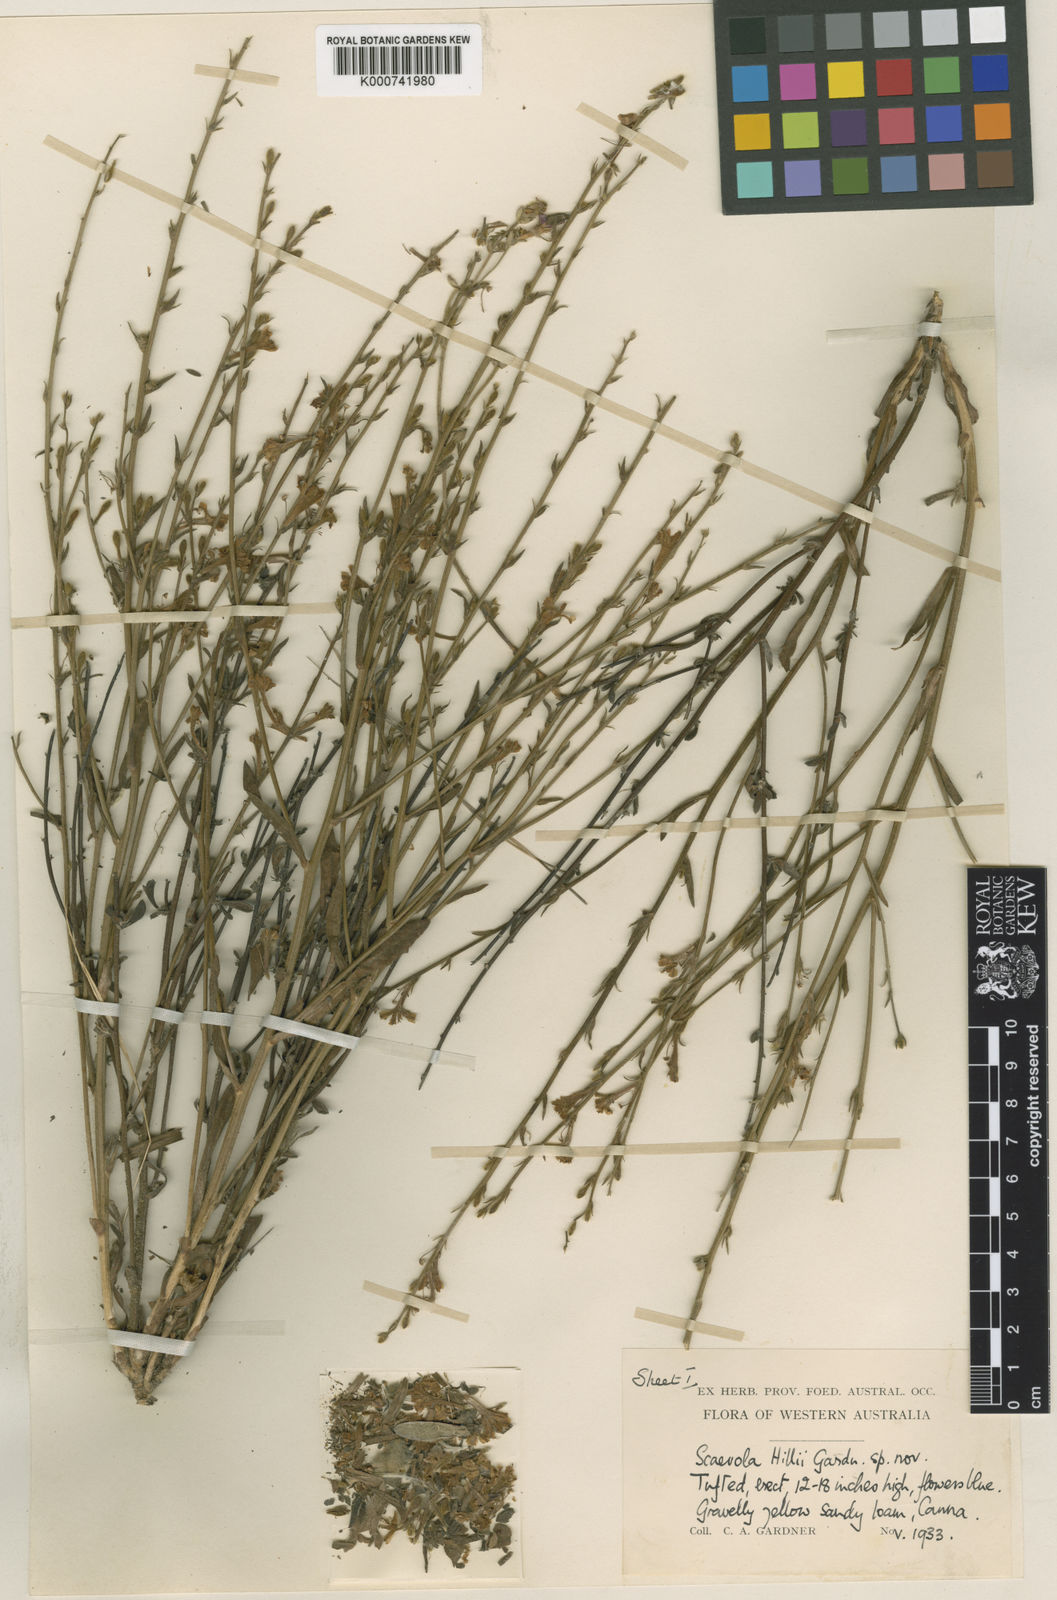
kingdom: Plantae
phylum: Tracheophyta
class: Magnoliopsida
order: Asterales
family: Goodeniaceae
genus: Scaevola
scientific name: Scaevola
